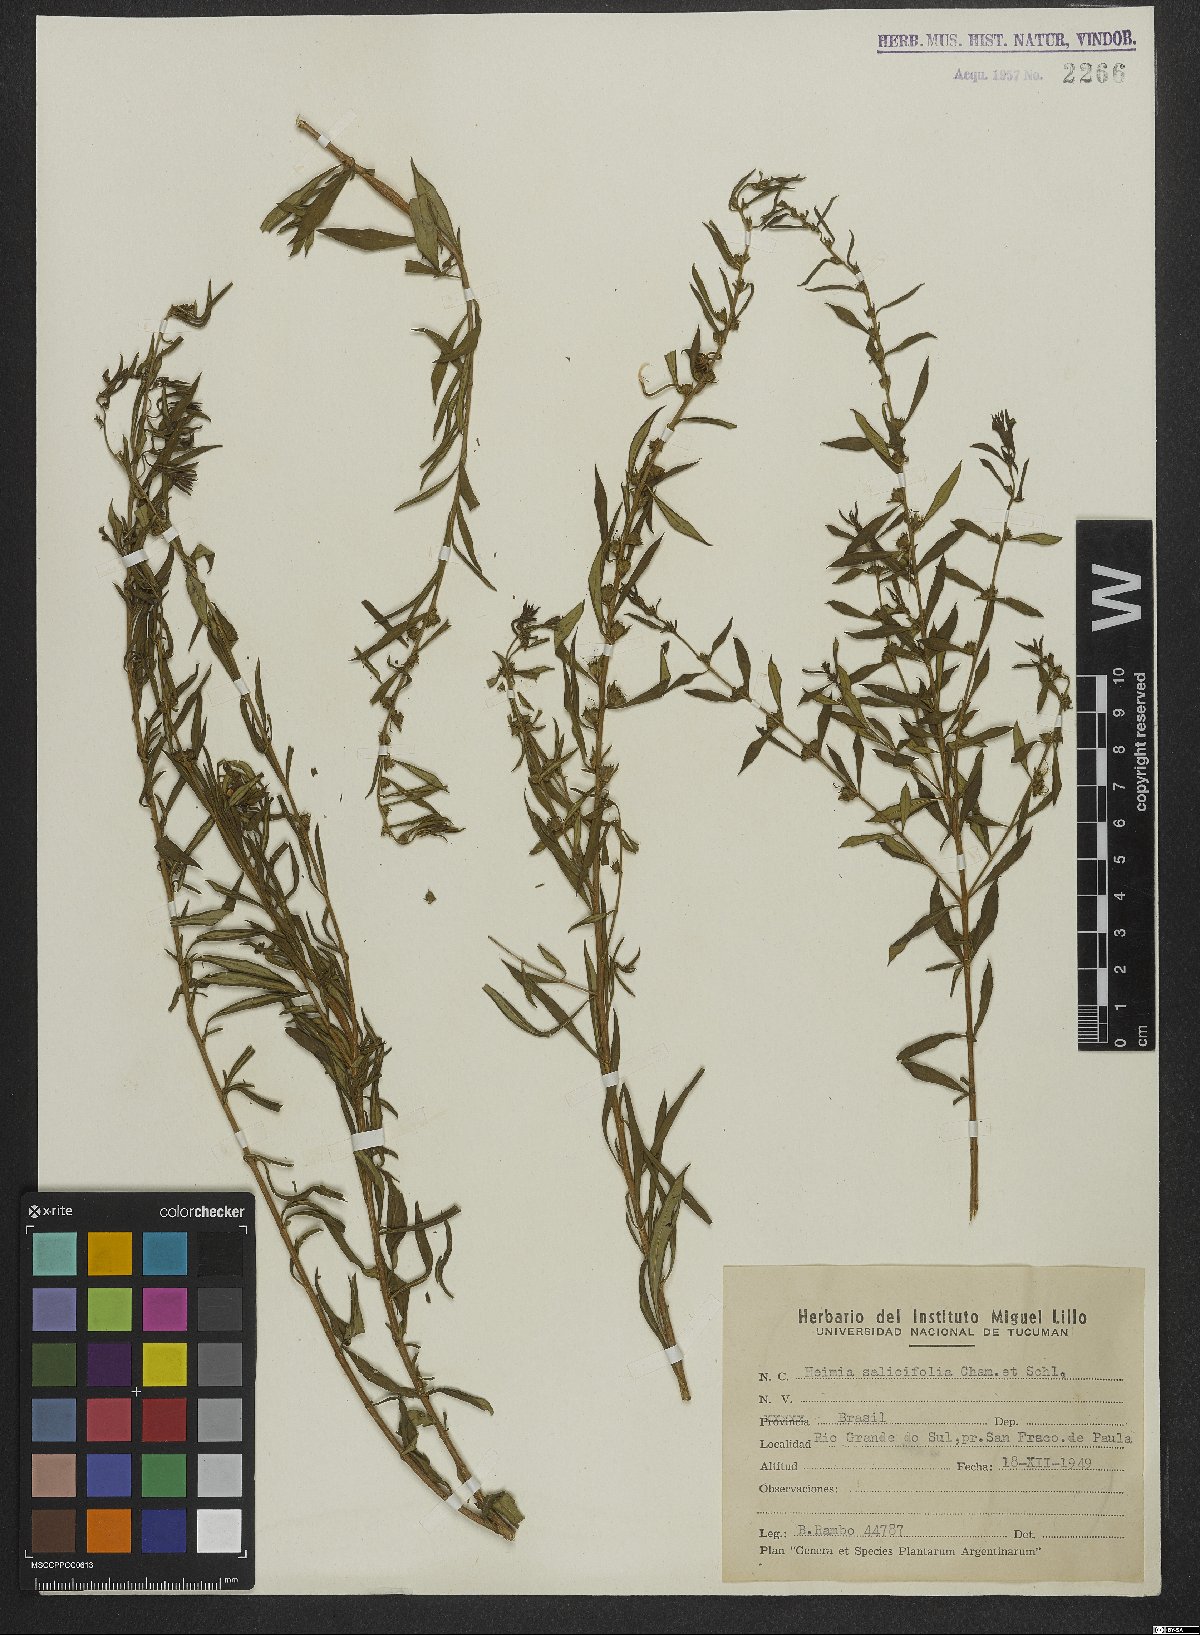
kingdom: Plantae
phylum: Tracheophyta
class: Magnoliopsida
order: Myrtales
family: Lythraceae
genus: Heimia
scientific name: Heimia salicifolia
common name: Willow-leaf heimia
